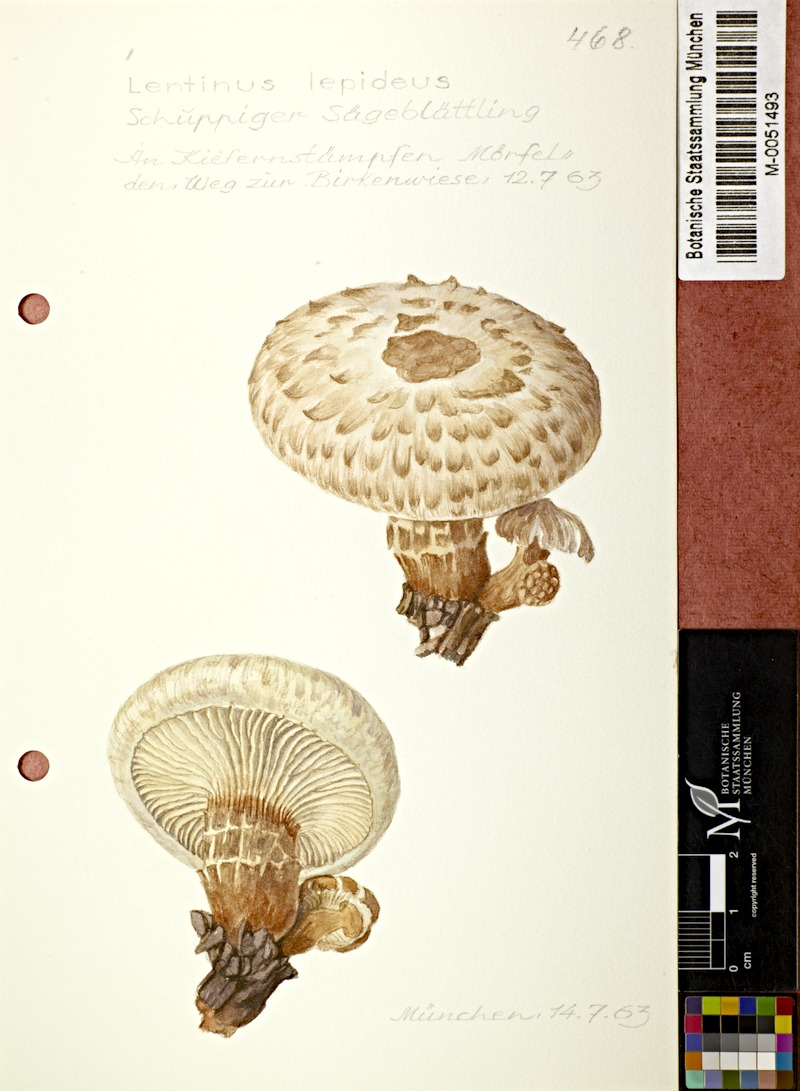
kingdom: Fungi
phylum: Basidiomycota
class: Agaricomycetes
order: Gloeophyllales
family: Gloeophyllaceae
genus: Neolentinus
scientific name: Neolentinus lepideus
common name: Scaly sawgill
